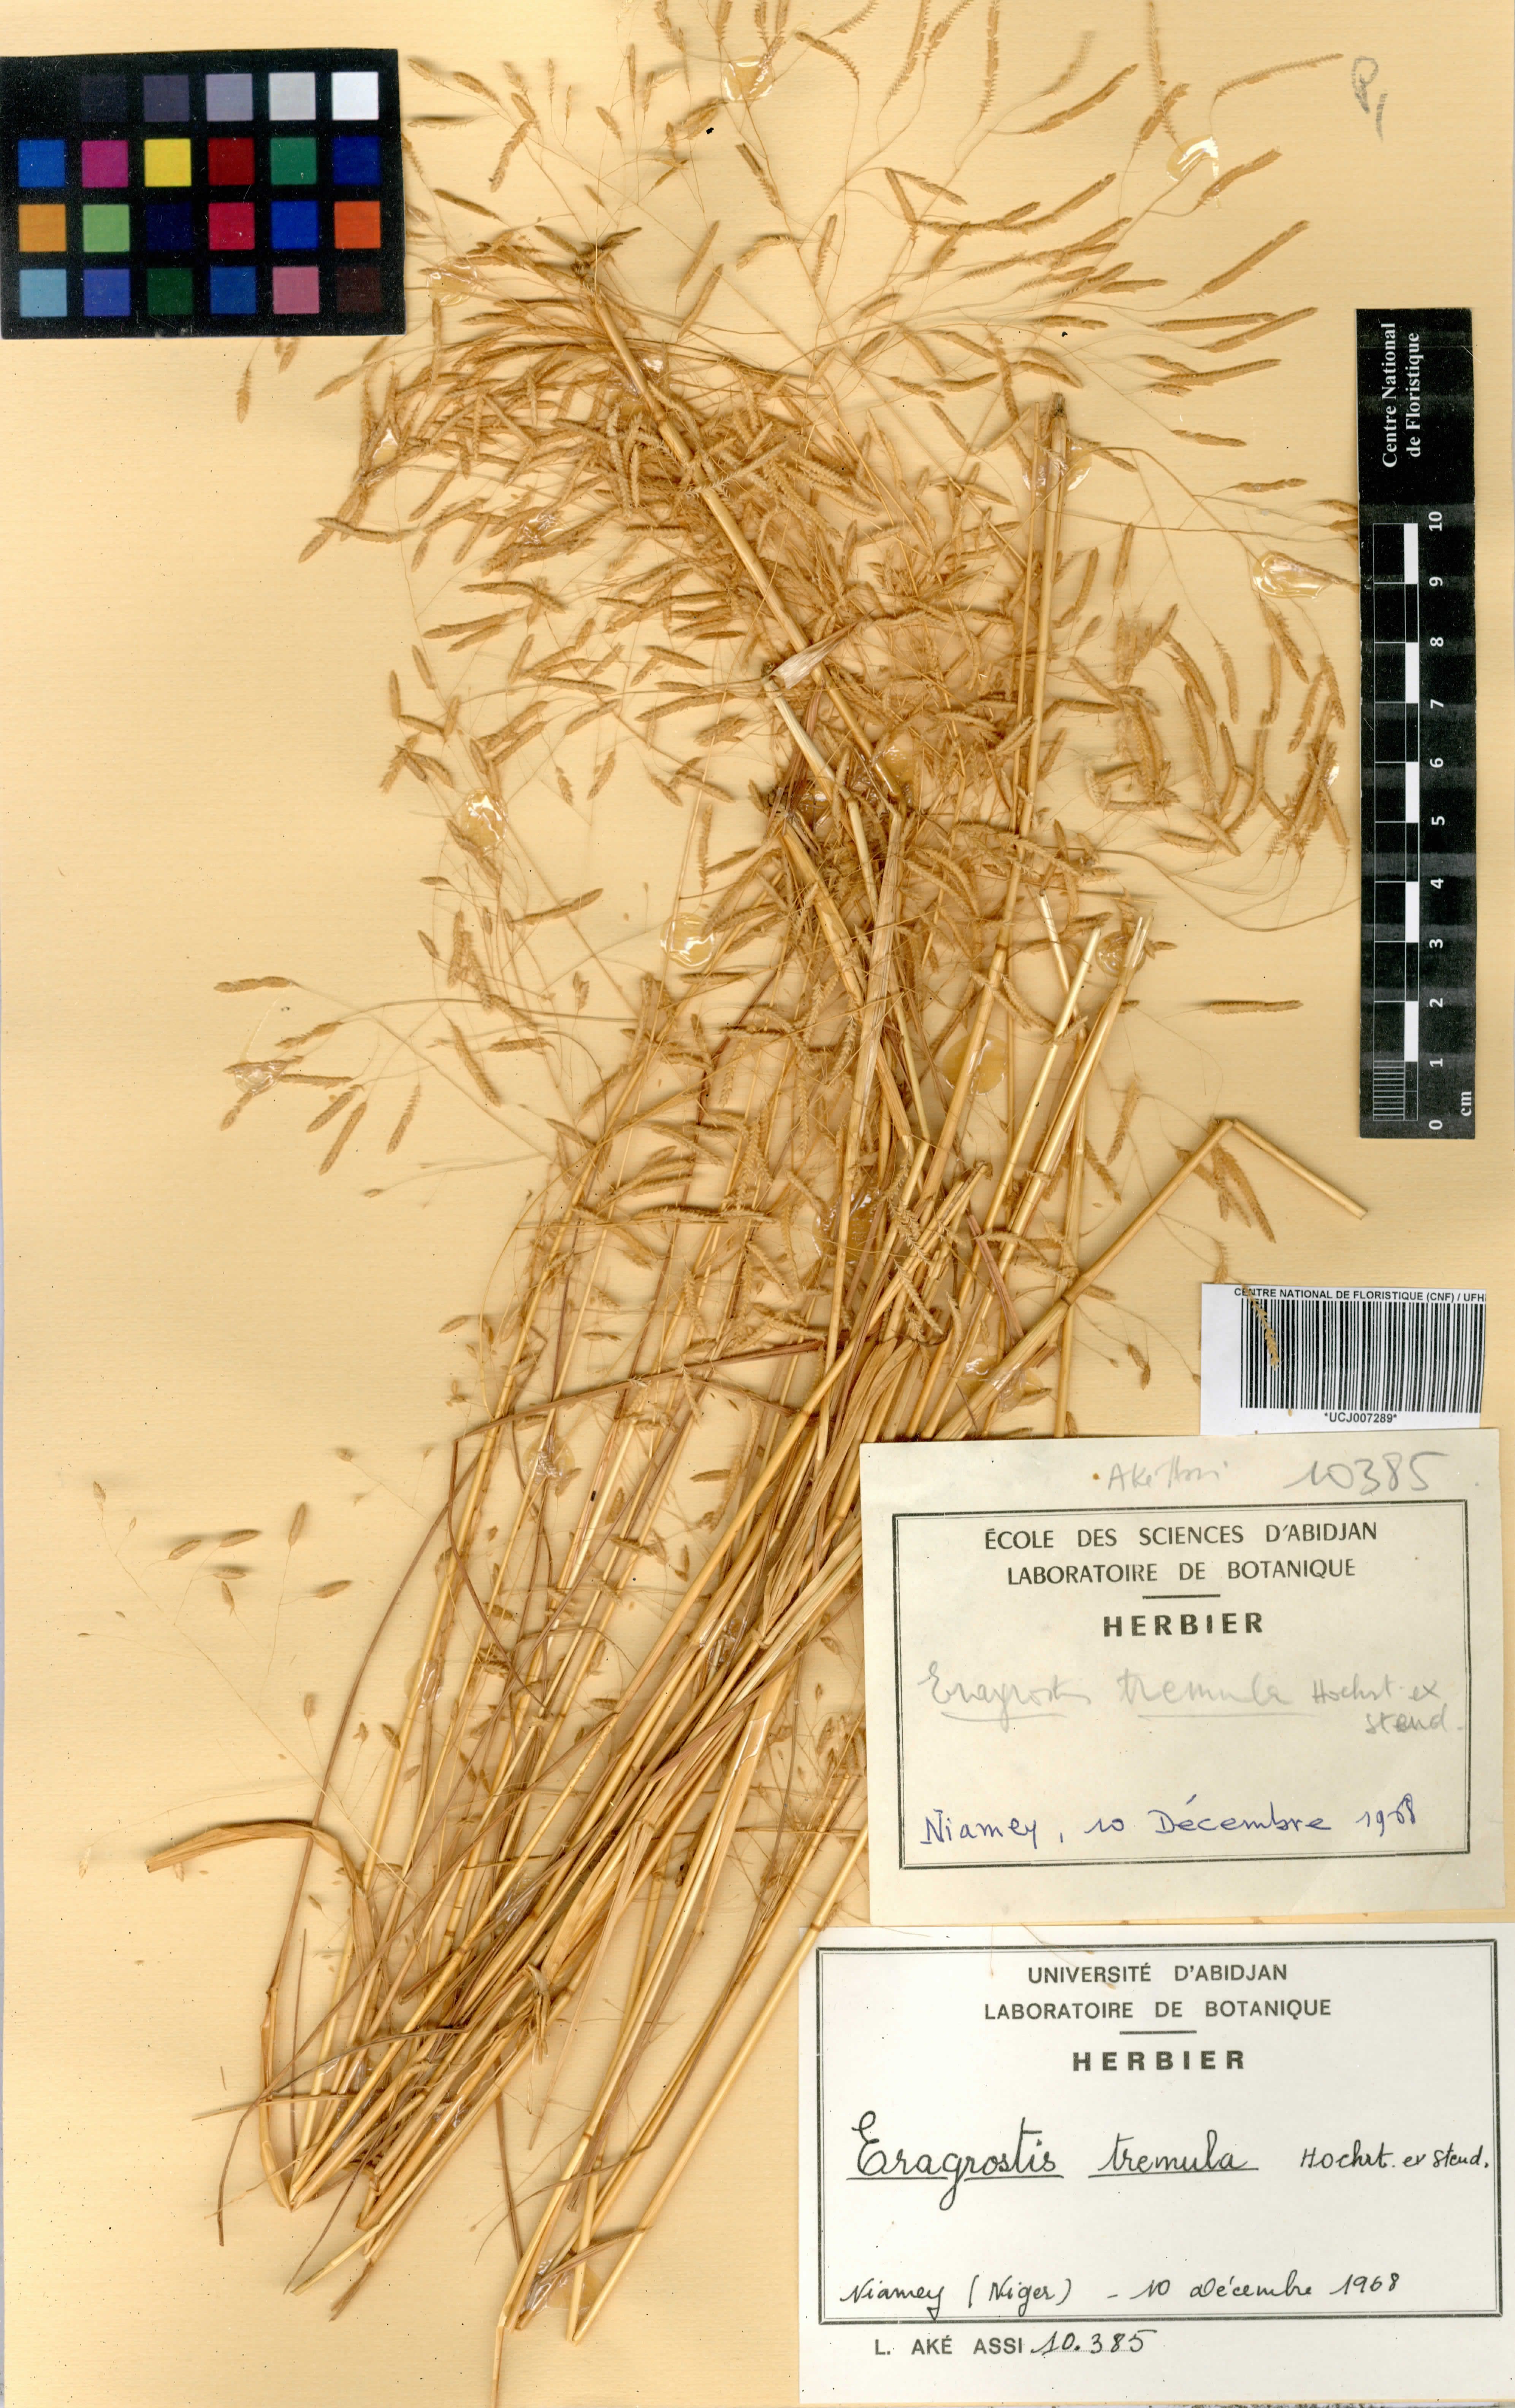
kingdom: Plantae
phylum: Tracheophyta
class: Liliopsida
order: Poales
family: Poaceae
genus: Eragrostis
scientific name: Eragrostis tremula
